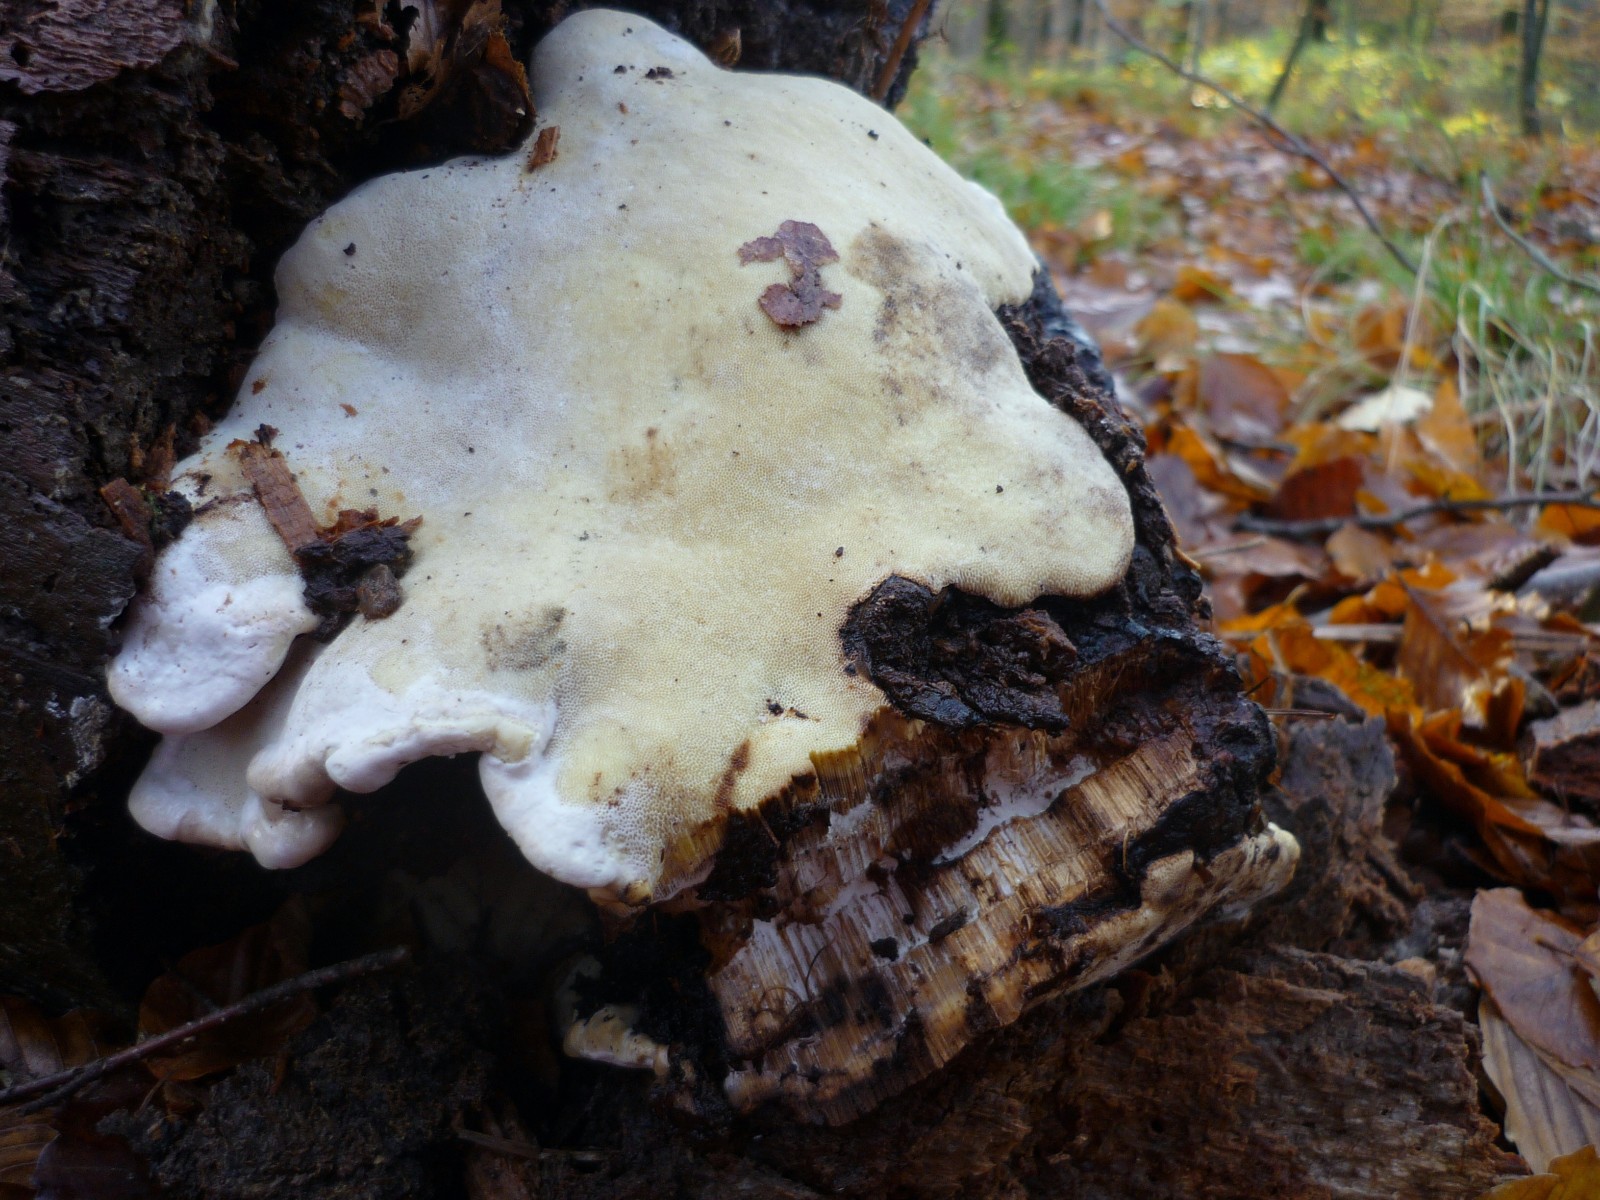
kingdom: Fungi
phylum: Basidiomycota
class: Agaricomycetes
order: Polyporales
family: Fomitopsidaceae
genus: Fomitopsis
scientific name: Fomitopsis pinicola
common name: randbæltet hovporesvamp
